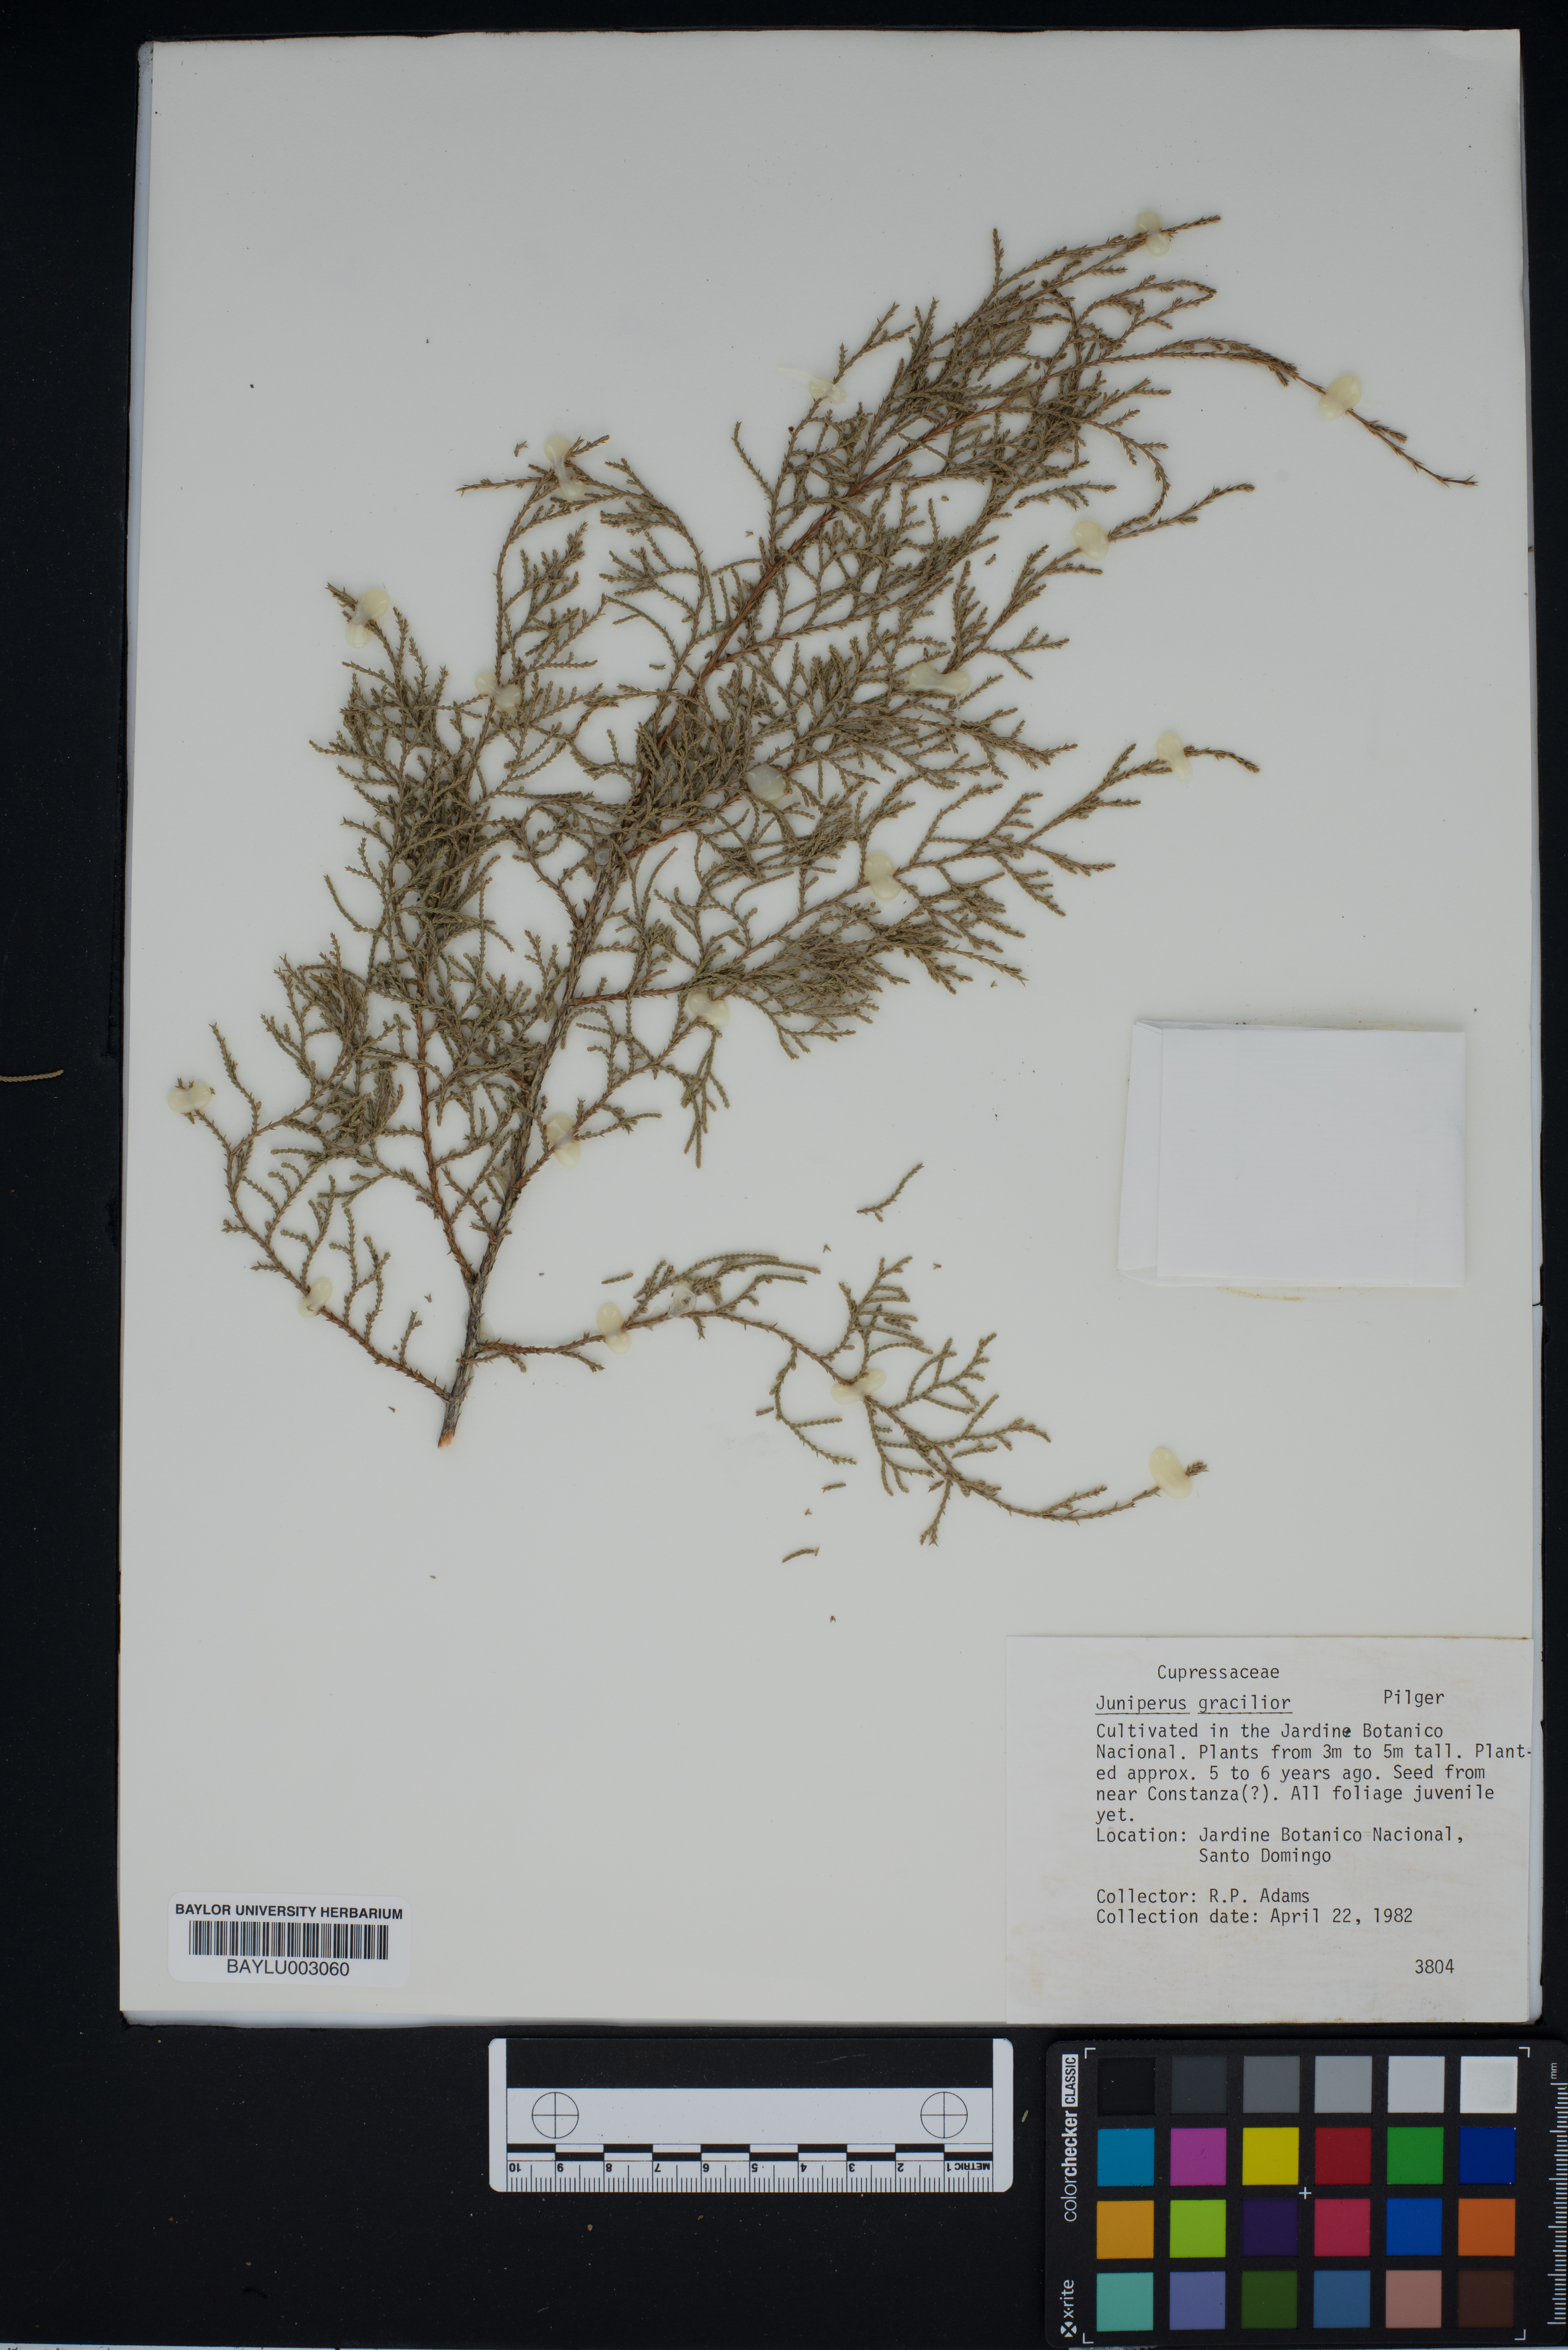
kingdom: Plantae
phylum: Tracheophyta
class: Pinopsida
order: Pinales
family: Cupressaceae
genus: Juniperus
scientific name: Juniperus gracilior
